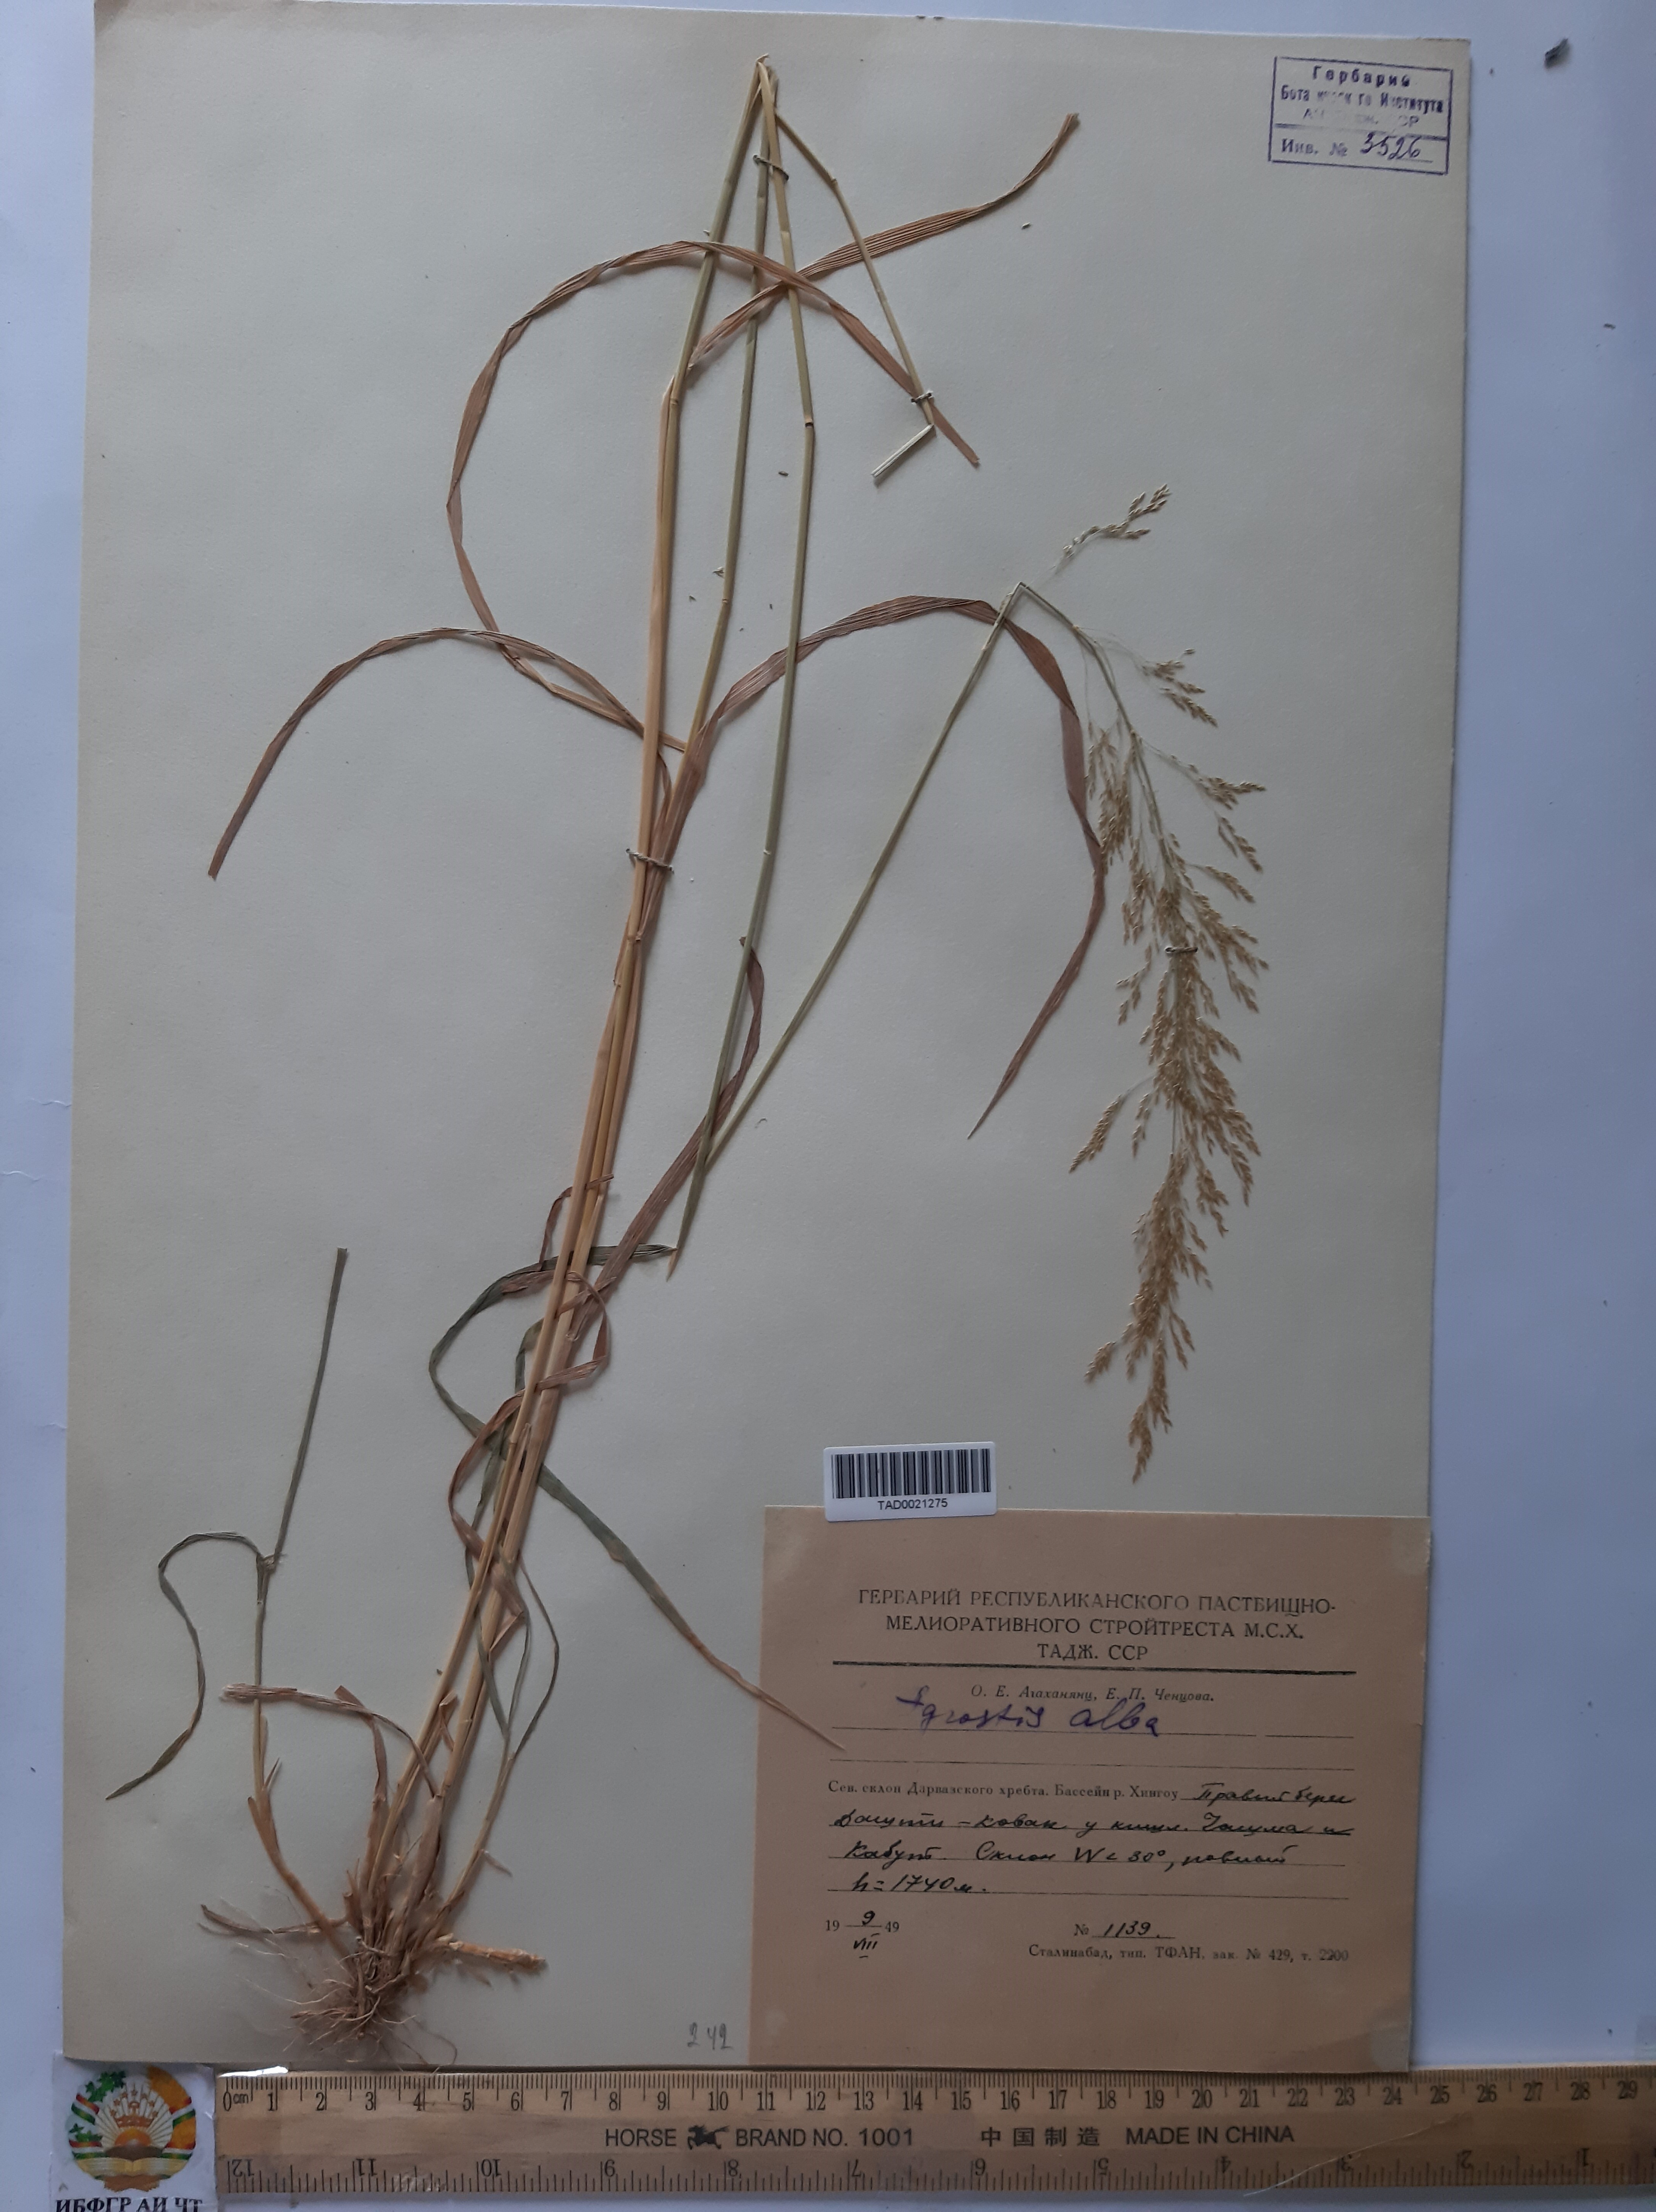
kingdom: Plantae
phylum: Tracheophyta
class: Liliopsida
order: Poales
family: Poaceae
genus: Poa
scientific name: Poa nemoralis
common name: Wood bluegrass
